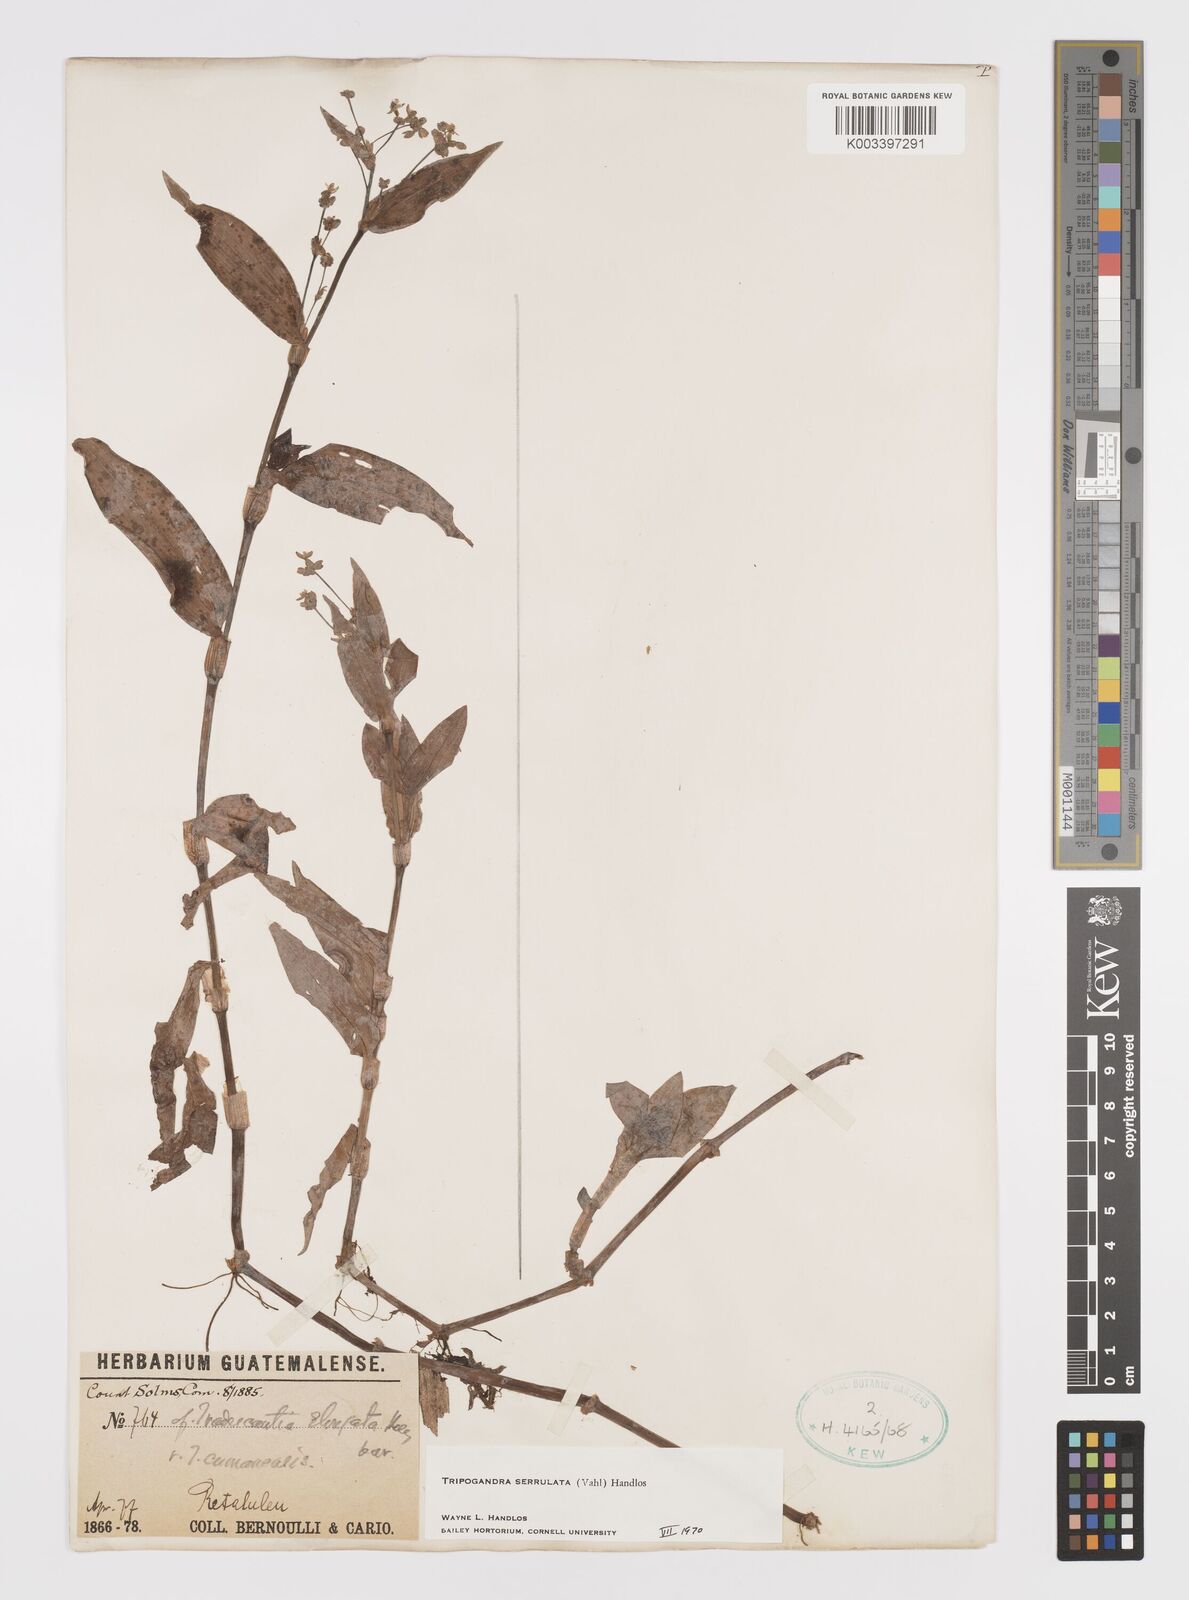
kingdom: Plantae
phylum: Tracheophyta
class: Liliopsida
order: Commelinales
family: Commelinaceae
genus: Callisia
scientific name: Callisia serrulata
